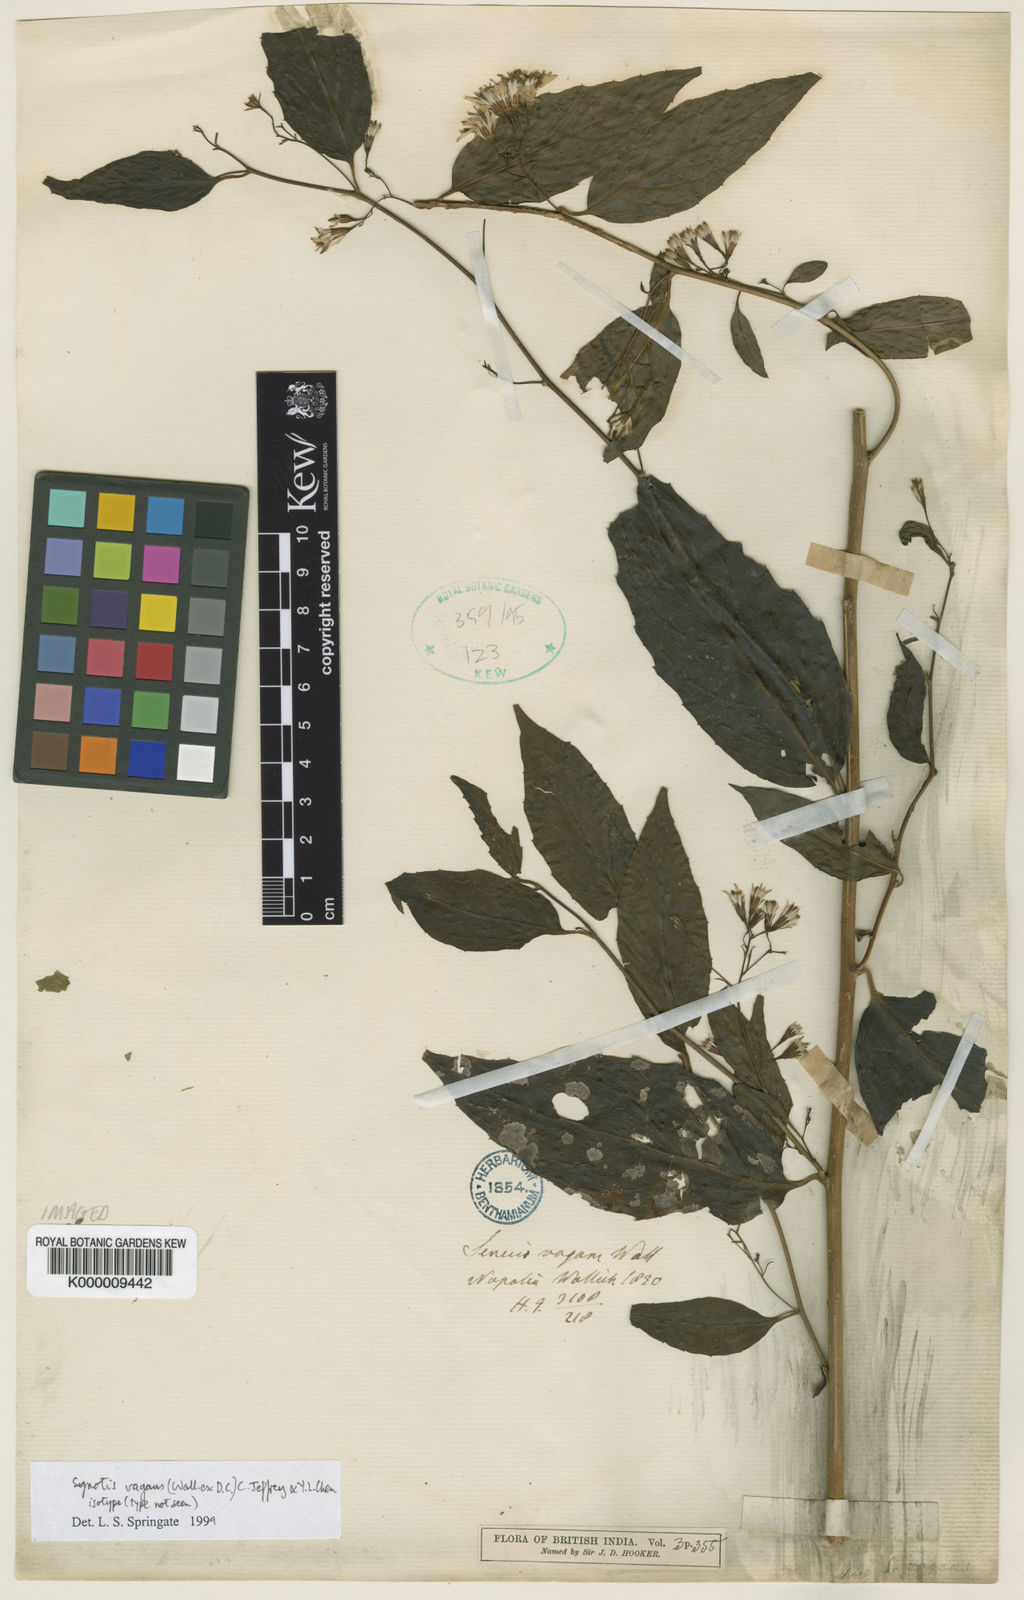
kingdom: Plantae
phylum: Tracheophyta
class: Magnoliopsida
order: Asterales
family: Asteraceae
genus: Synotis
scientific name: Synotis vagans
